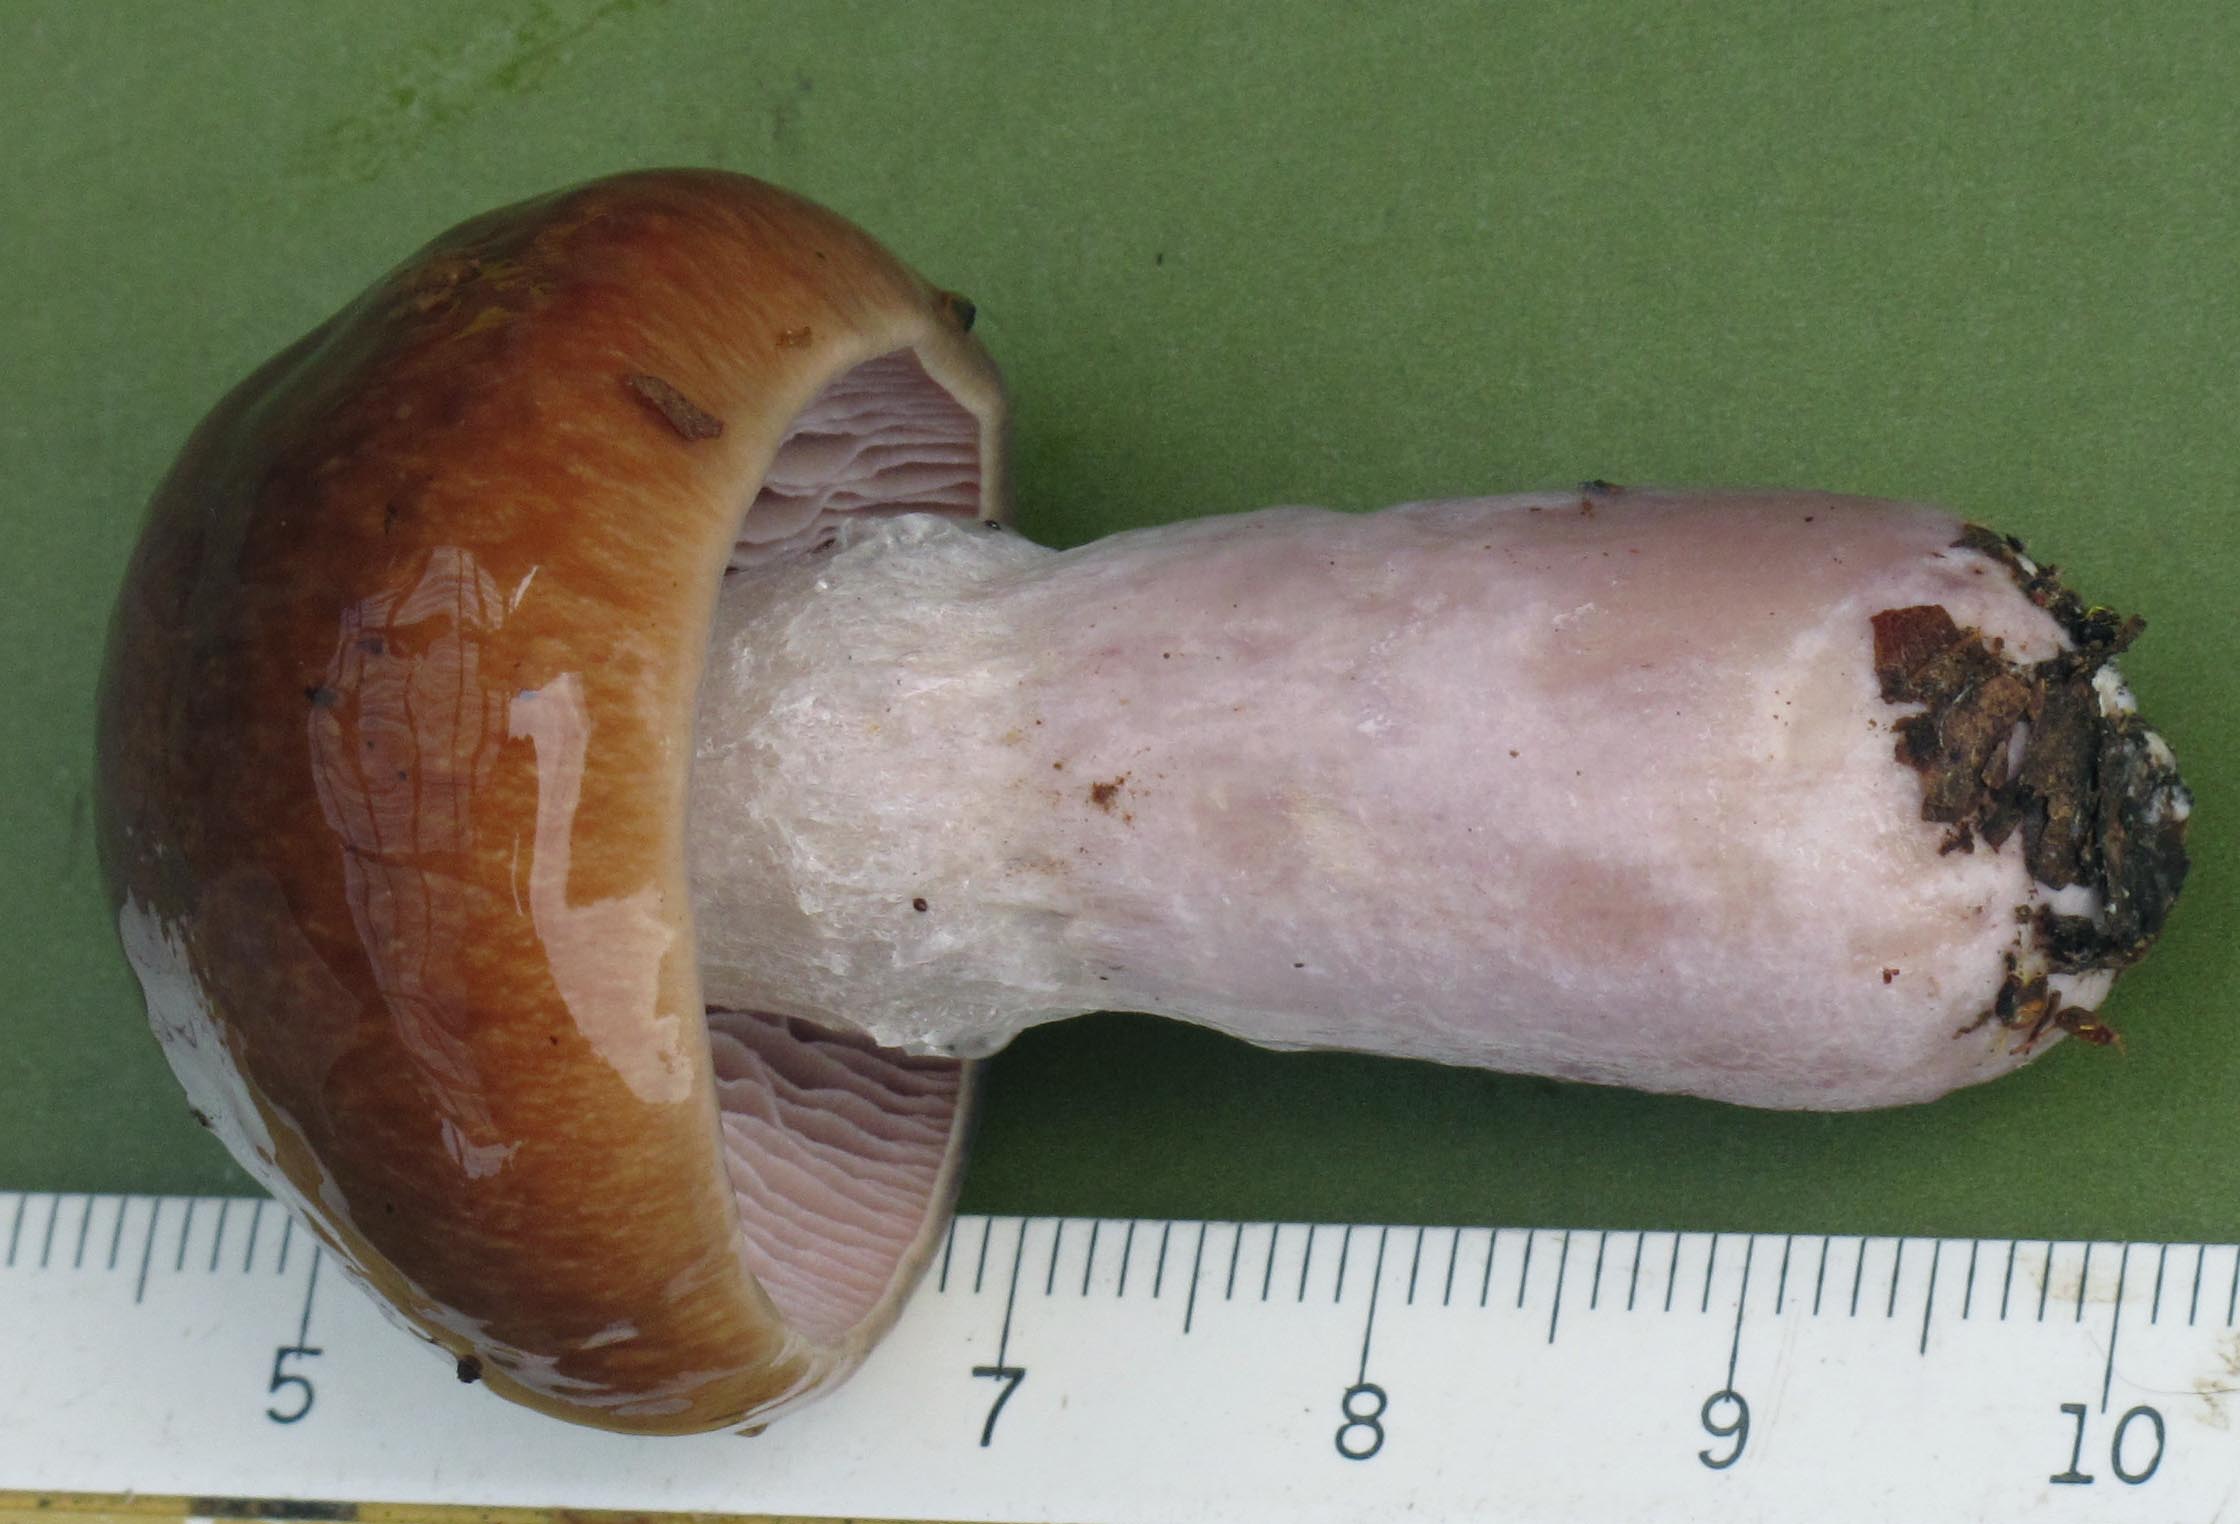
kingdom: Fungi
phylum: Basidiomycota
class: Agaricomycetes
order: Agaricales
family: Cortinariaceae
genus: Cortinarius
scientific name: Cortinarius stillatitius
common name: honningduftende slørhat
